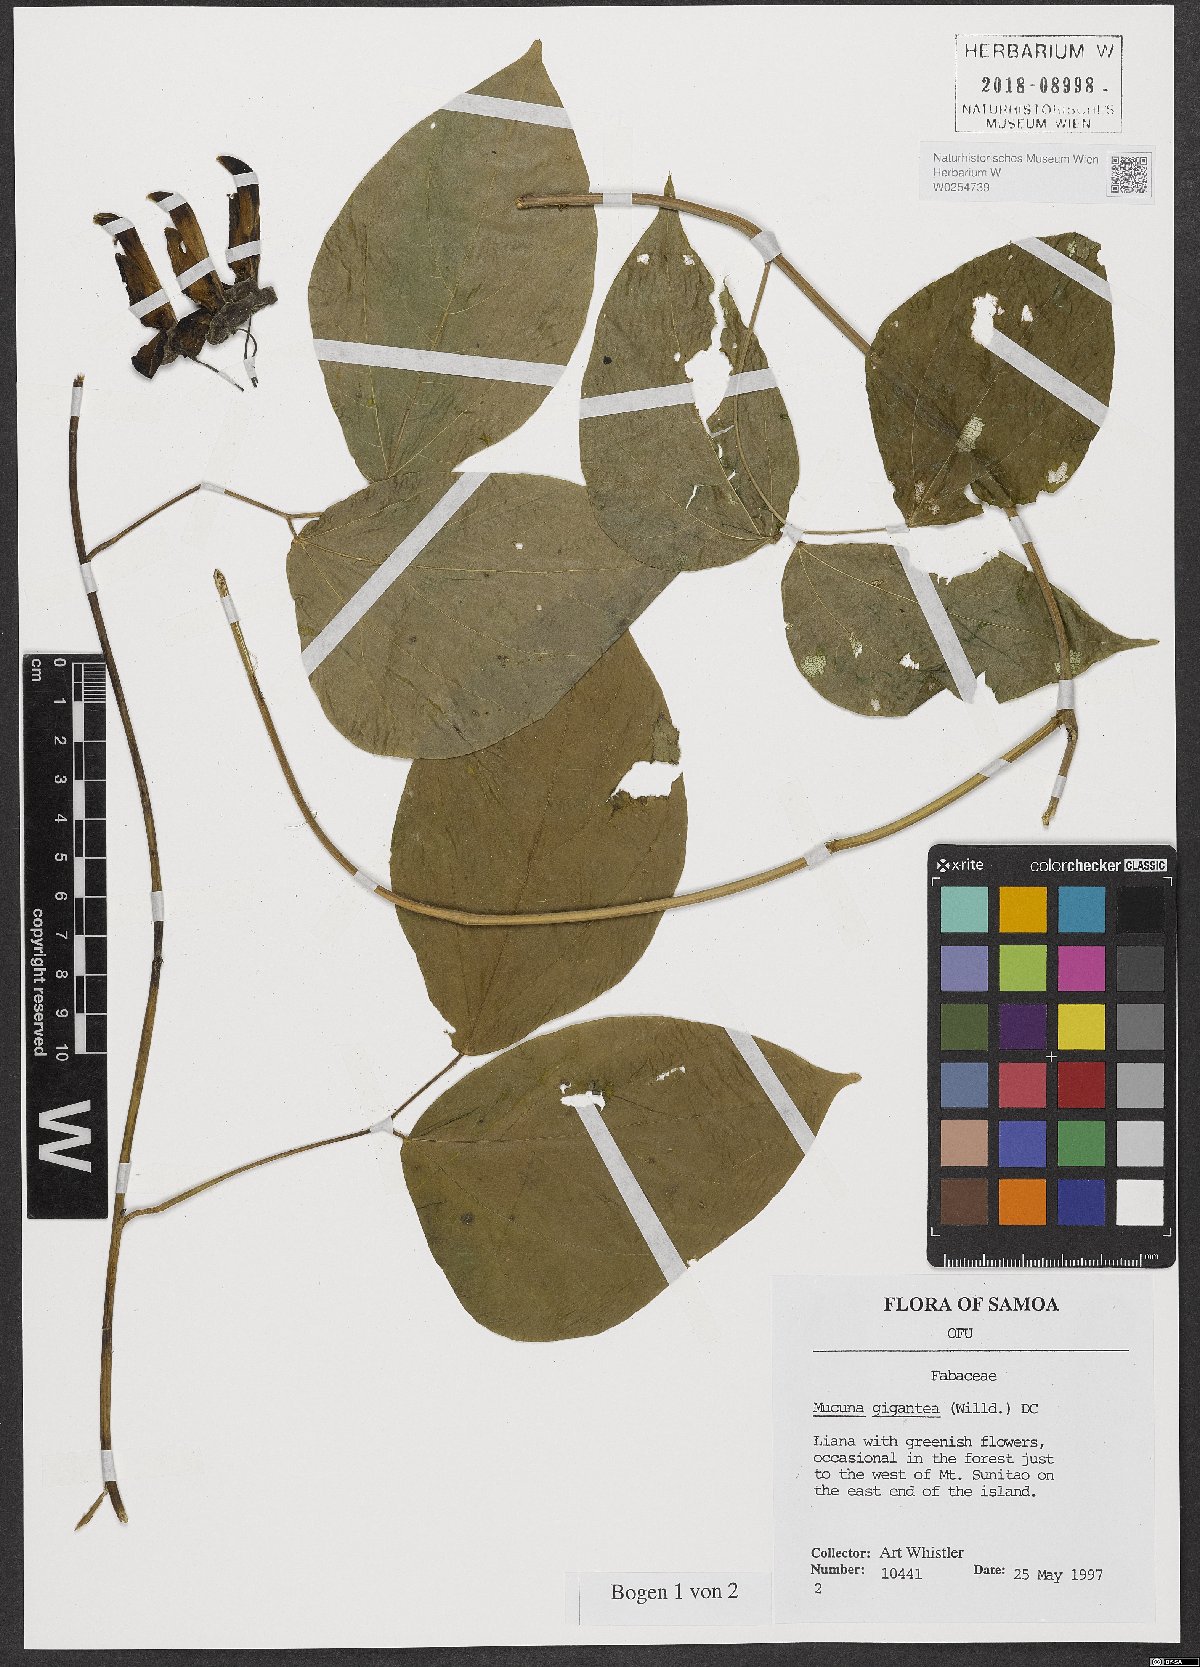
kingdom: Plantae
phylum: Tracheophyta
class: Magnoliopsida
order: Fabales
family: Fabaceae
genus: Mucuna
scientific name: Mucuna gigantea
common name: Black-bean
